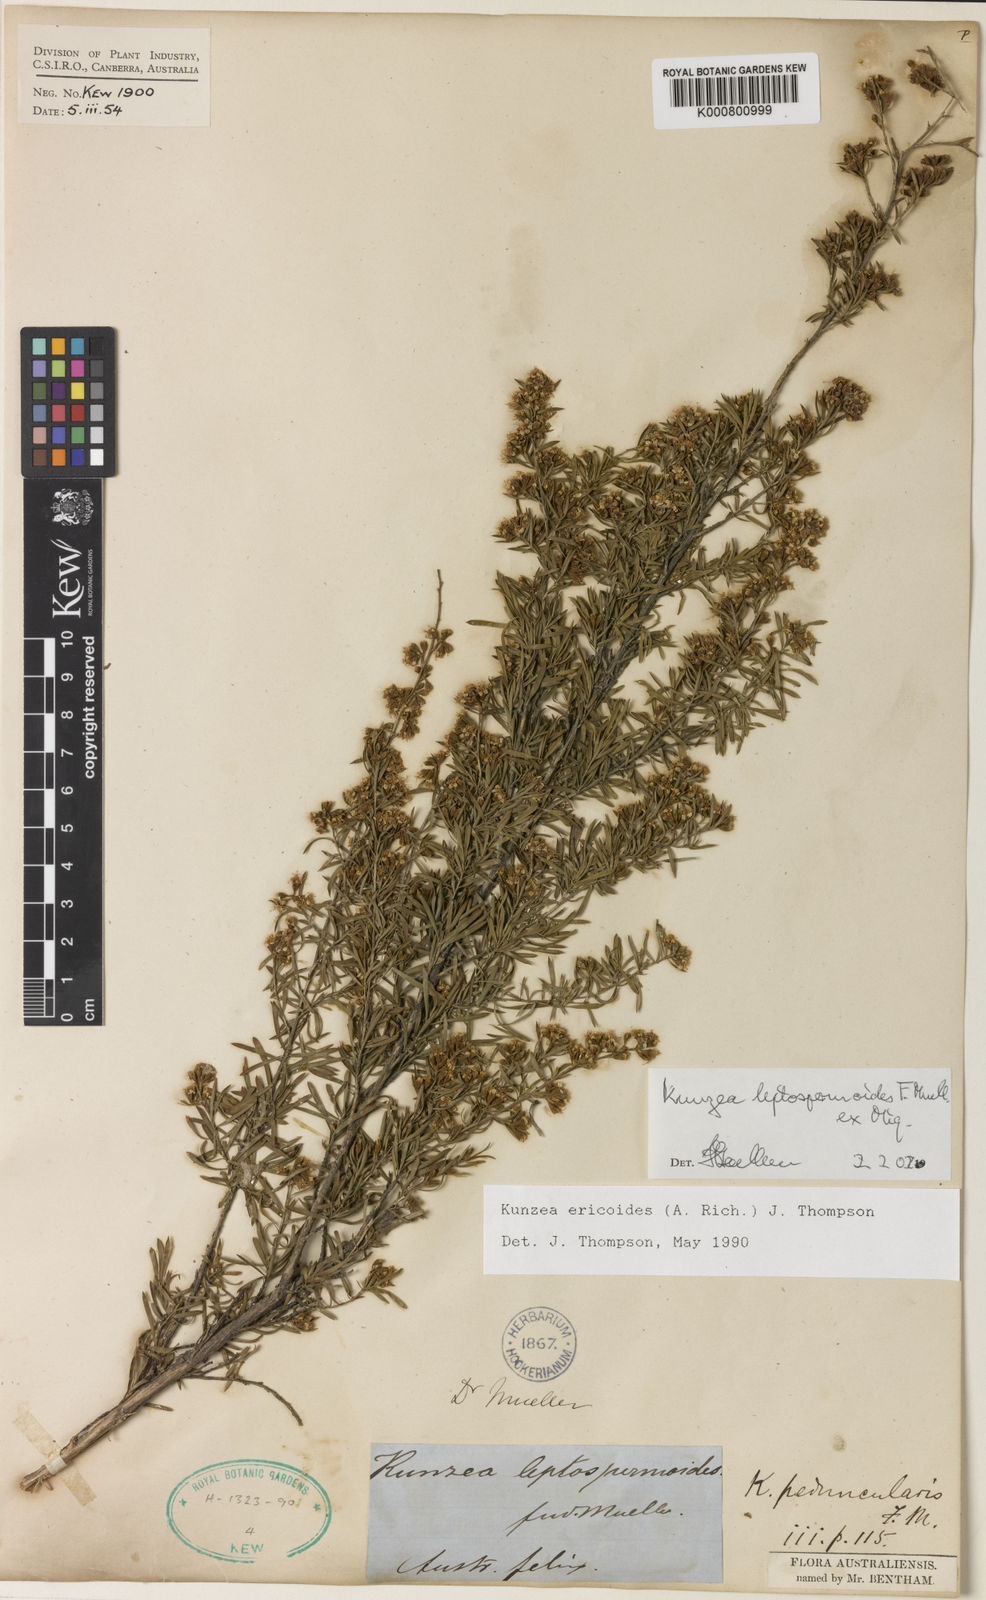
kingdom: Plantae
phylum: Tracheophyta
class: Magnoliopsida
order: Myrtales
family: Myrtaceae
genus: Kunzea
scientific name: Kunzea ericoides
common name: Burgan
